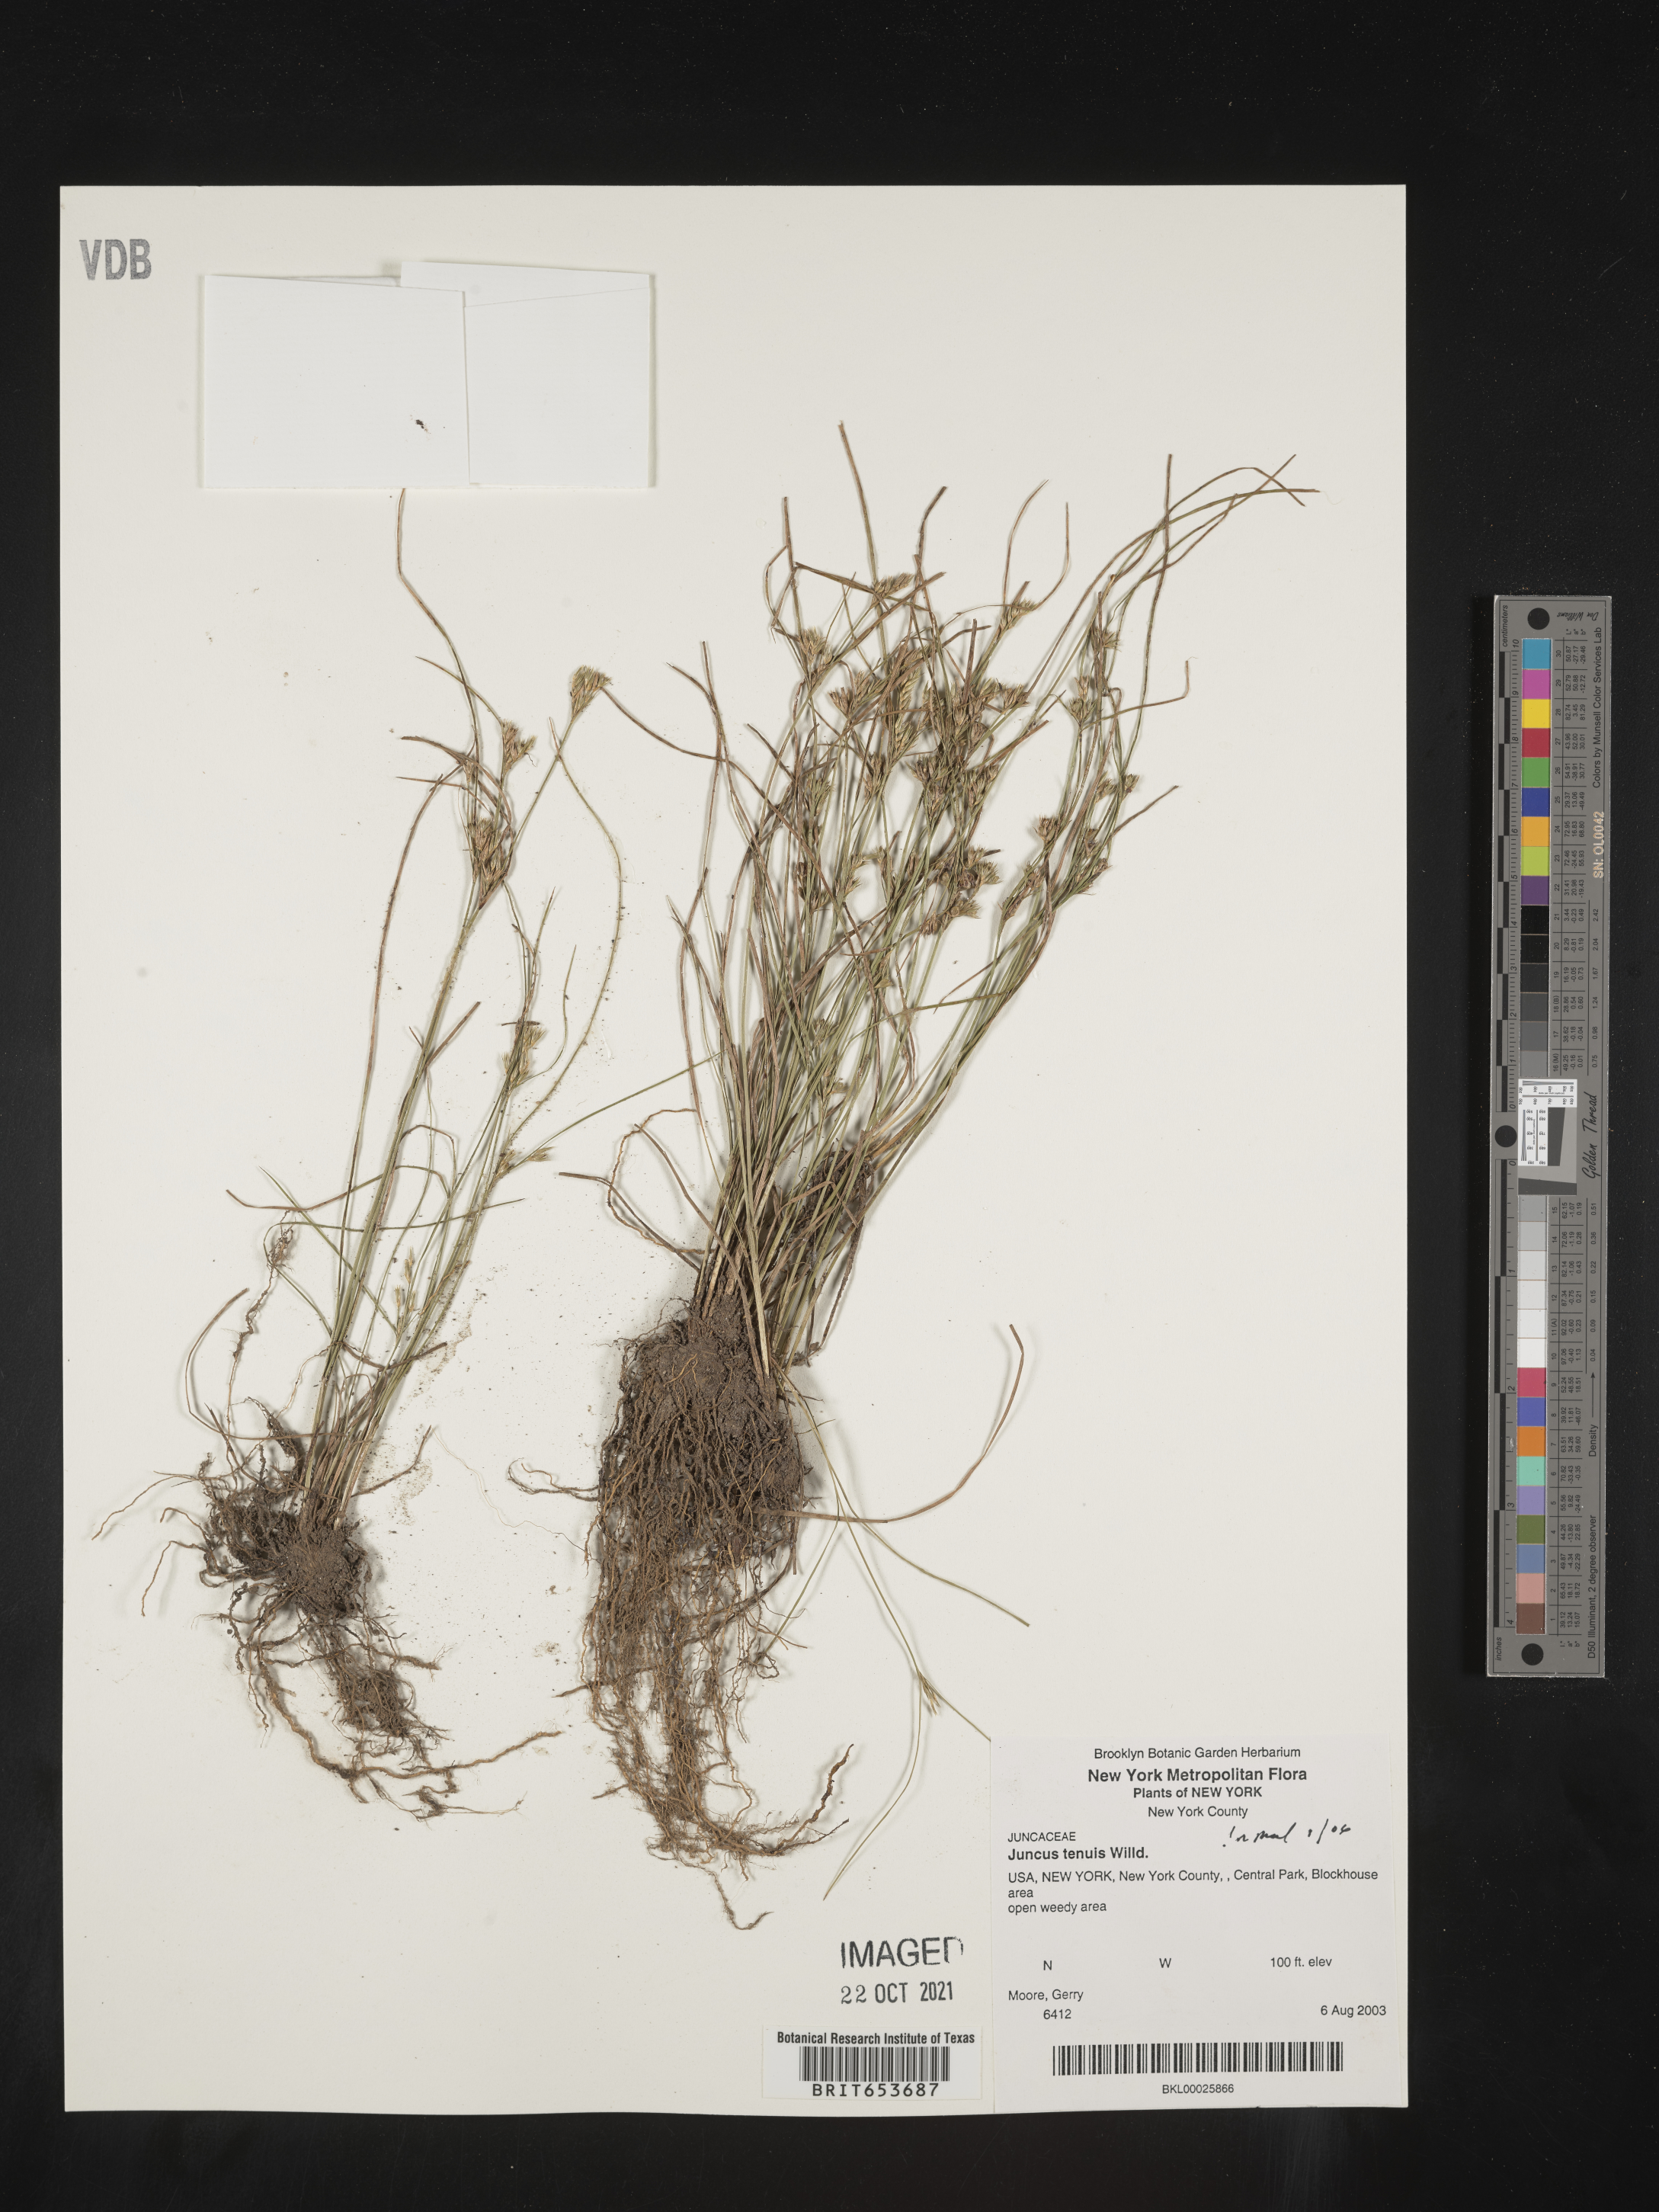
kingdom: Plantae
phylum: Tracheophyta
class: Liliopsida
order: Poales
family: Juncaceae
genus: Juncus
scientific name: Juncus tenuis
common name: Slender rush
